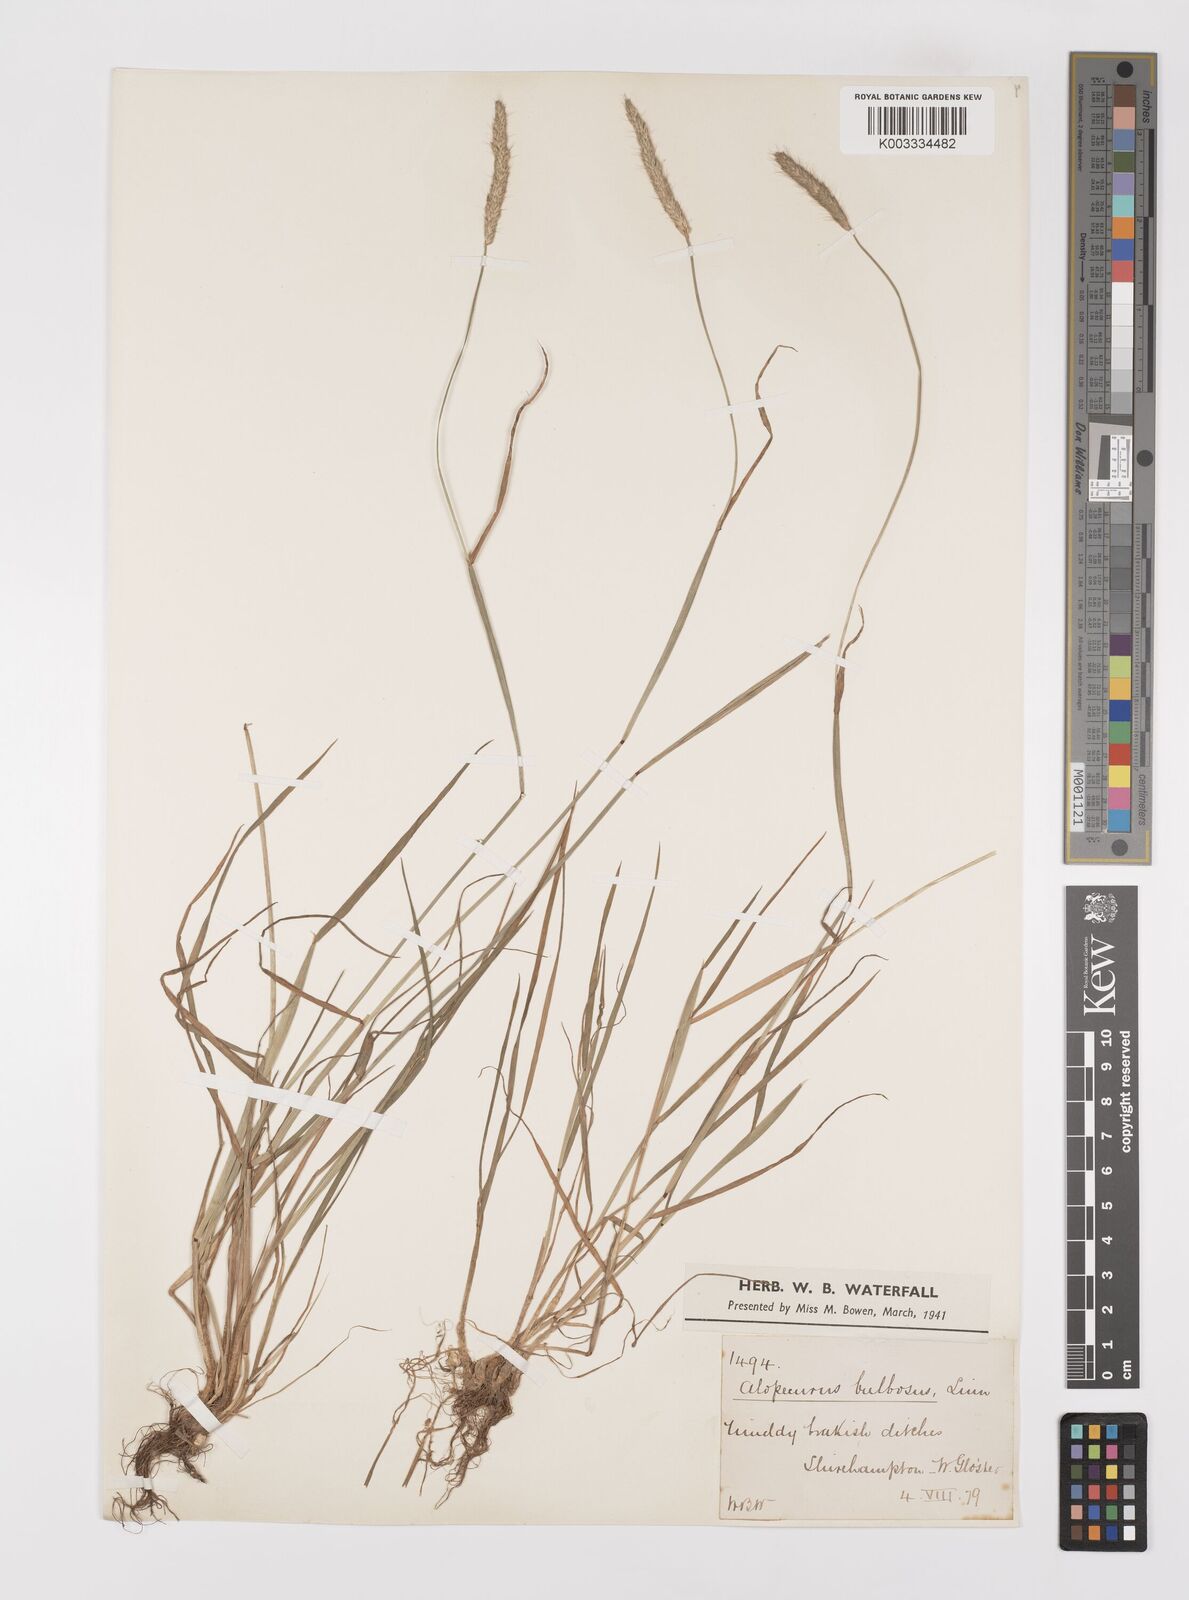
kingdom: Plantae
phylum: Tracheophyta
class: Liliopsida
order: Poales
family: Poaceae
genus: Alopecurus
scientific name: Alopecurus bulbosus
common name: Bulbous foxtail
